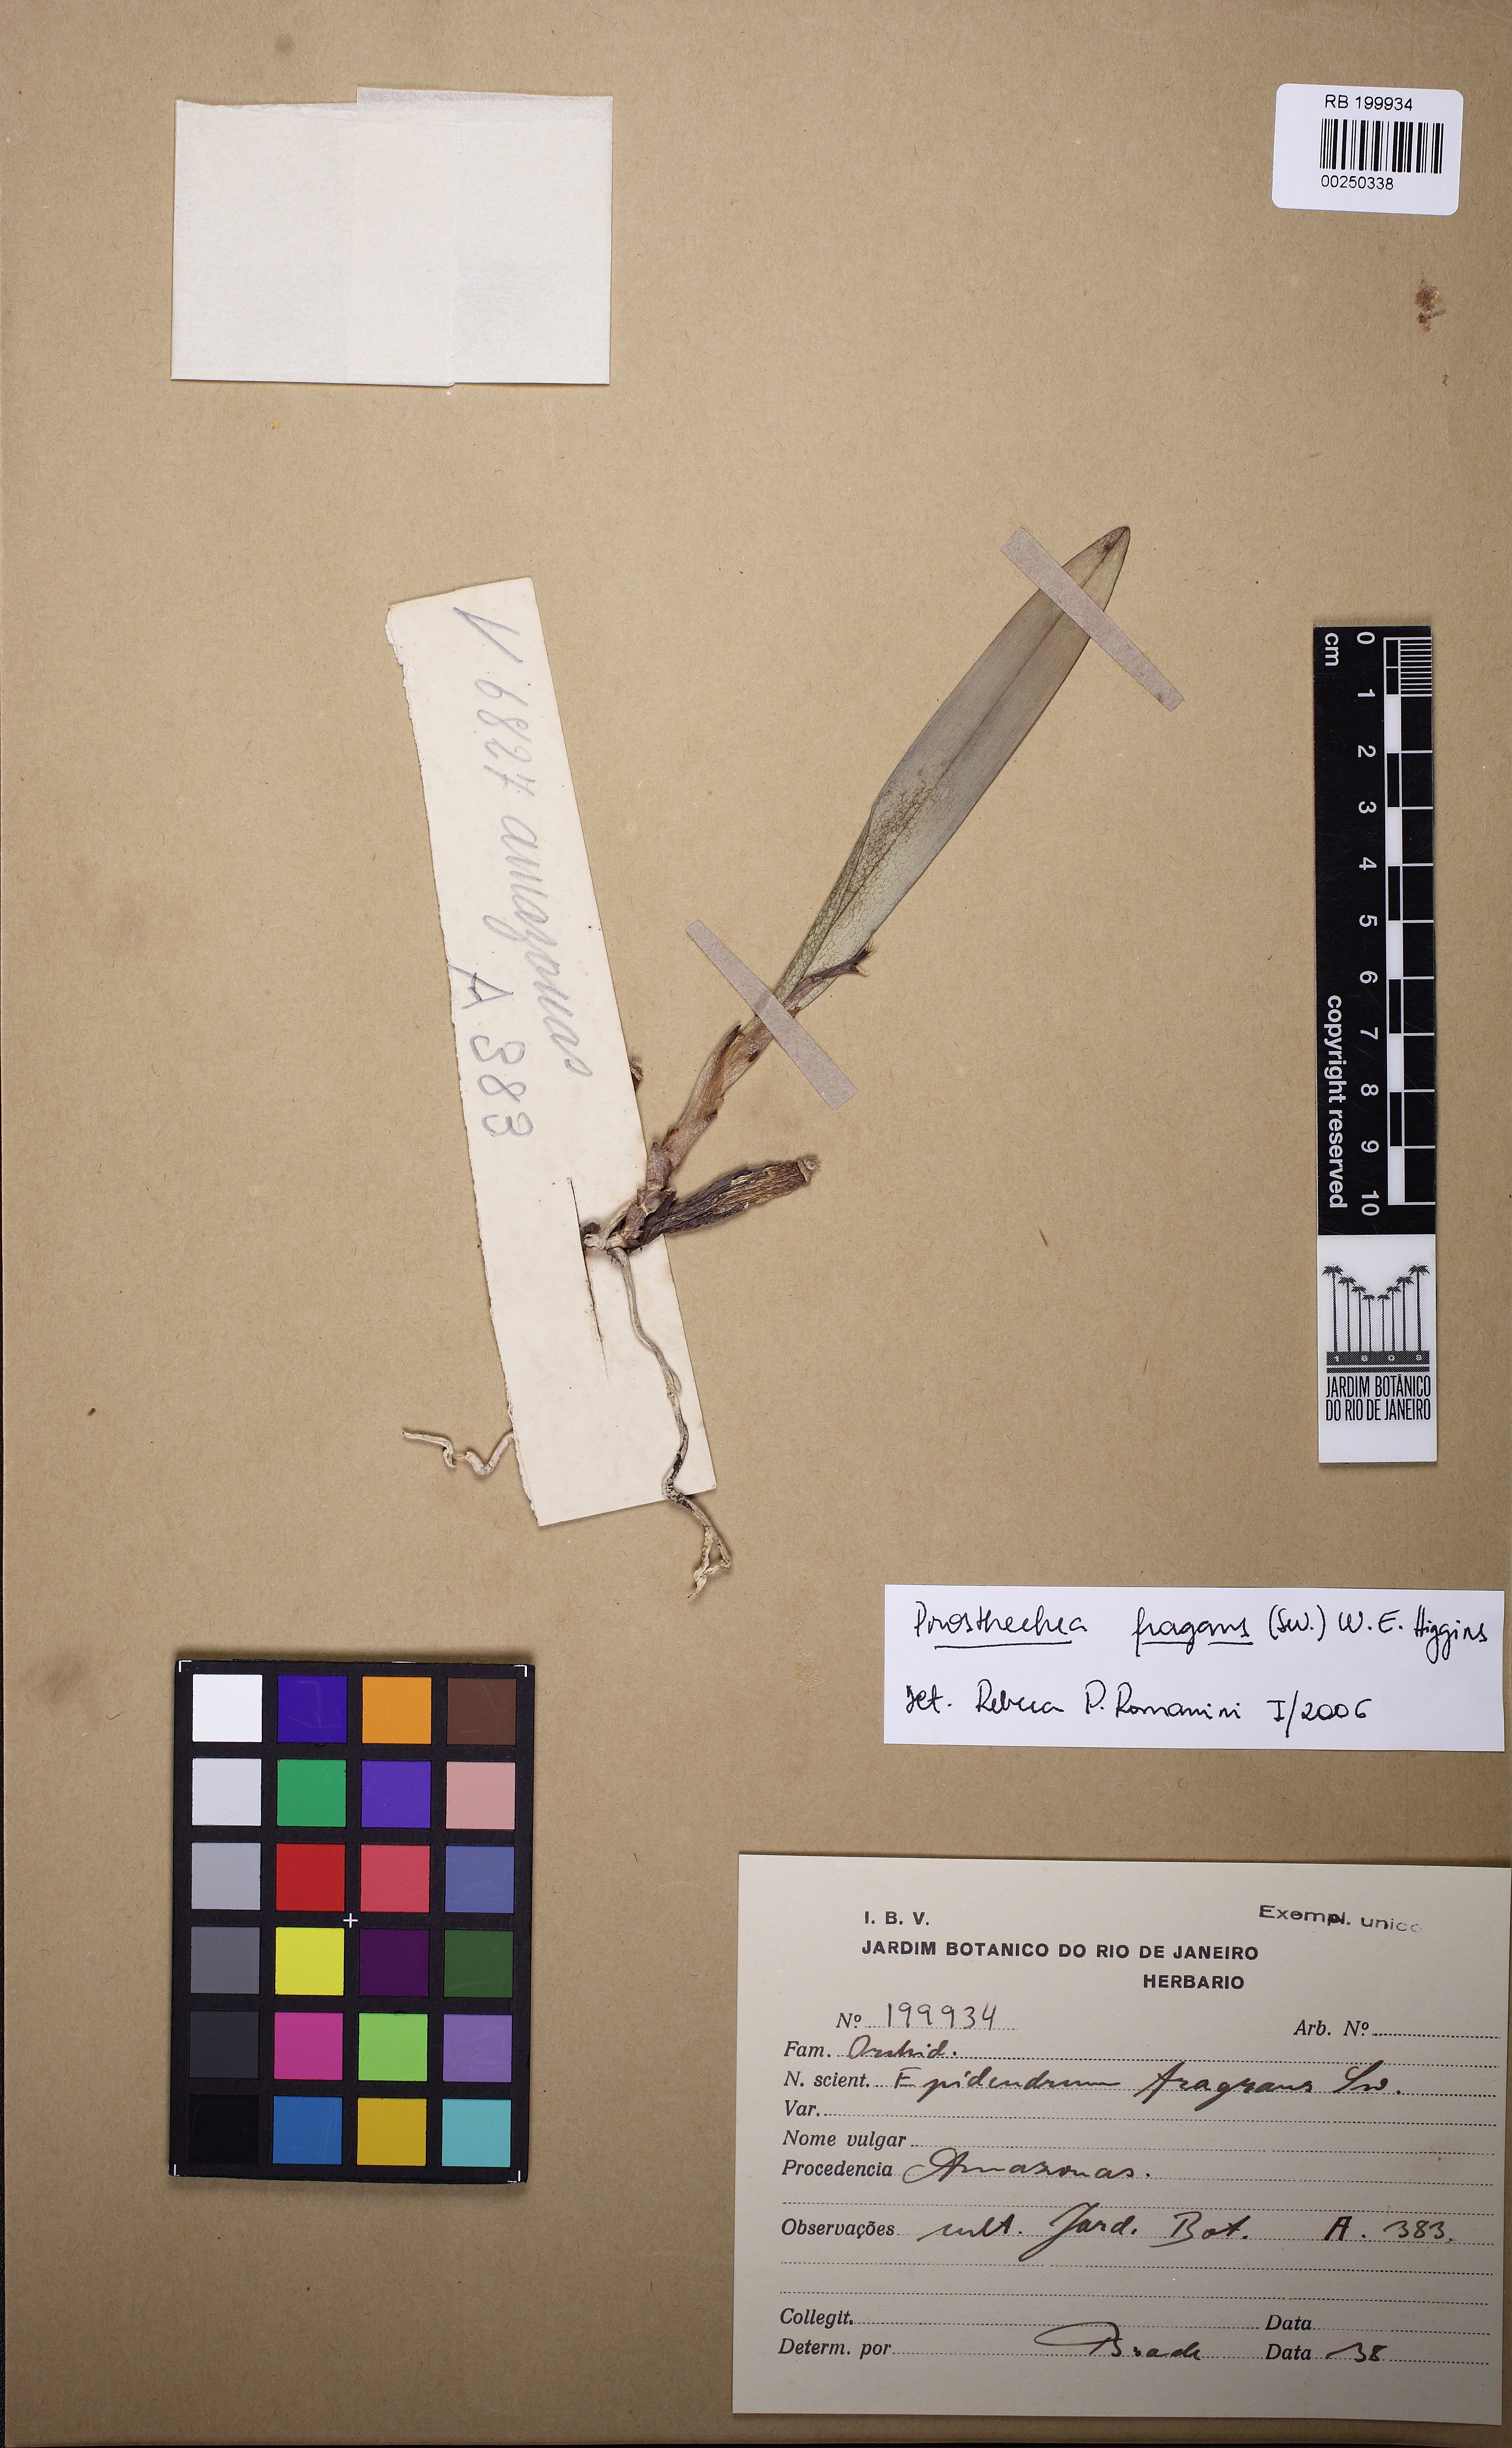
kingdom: Plantae
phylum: Tracheophyta
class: Liliopsida
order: Asparagales
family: Orchidaceae
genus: Prosthechea
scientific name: Prosthechea aemula
